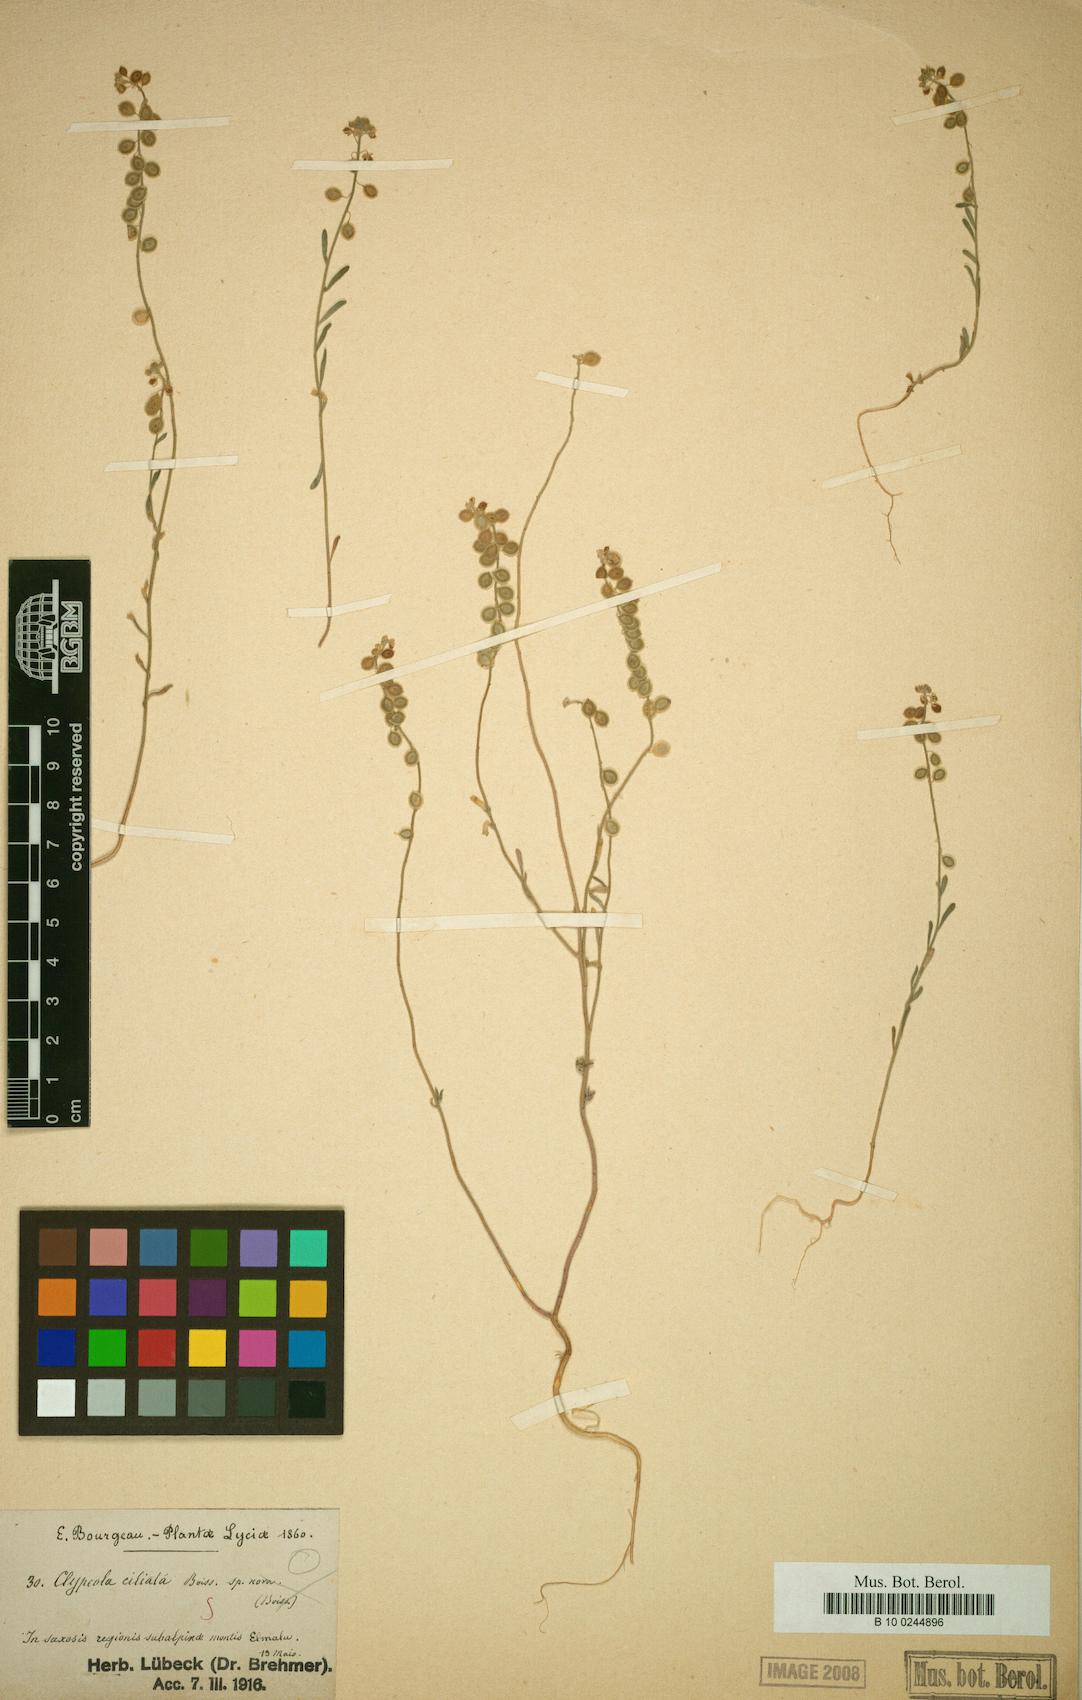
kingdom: Plantae
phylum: Tracheophyta
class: Magnoliopsida
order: Brassicales
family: Brassicaceae
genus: Clypeola
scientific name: Clypeola ciliata
